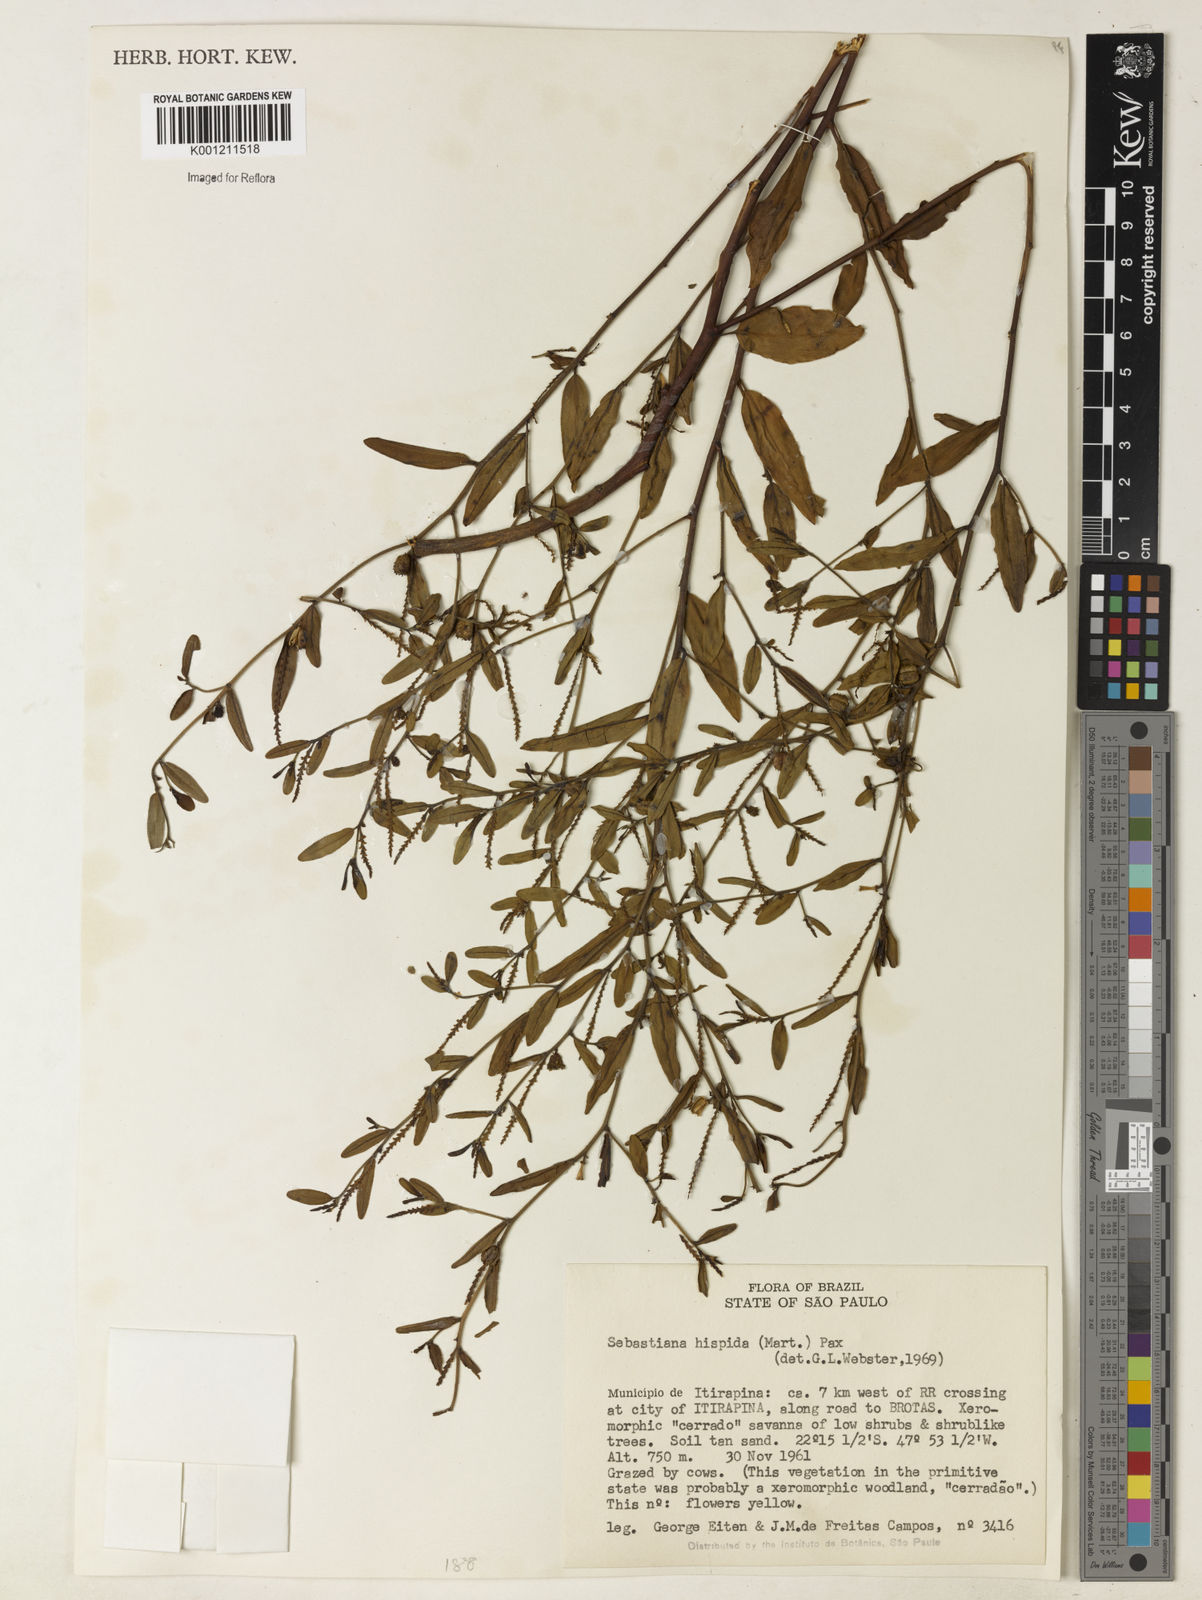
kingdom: Plantae
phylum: Tracheophyta
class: Magnoliopsida
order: Malpighiales
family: Euphorbiaceae
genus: Microstachys
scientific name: Microstachys hispida
